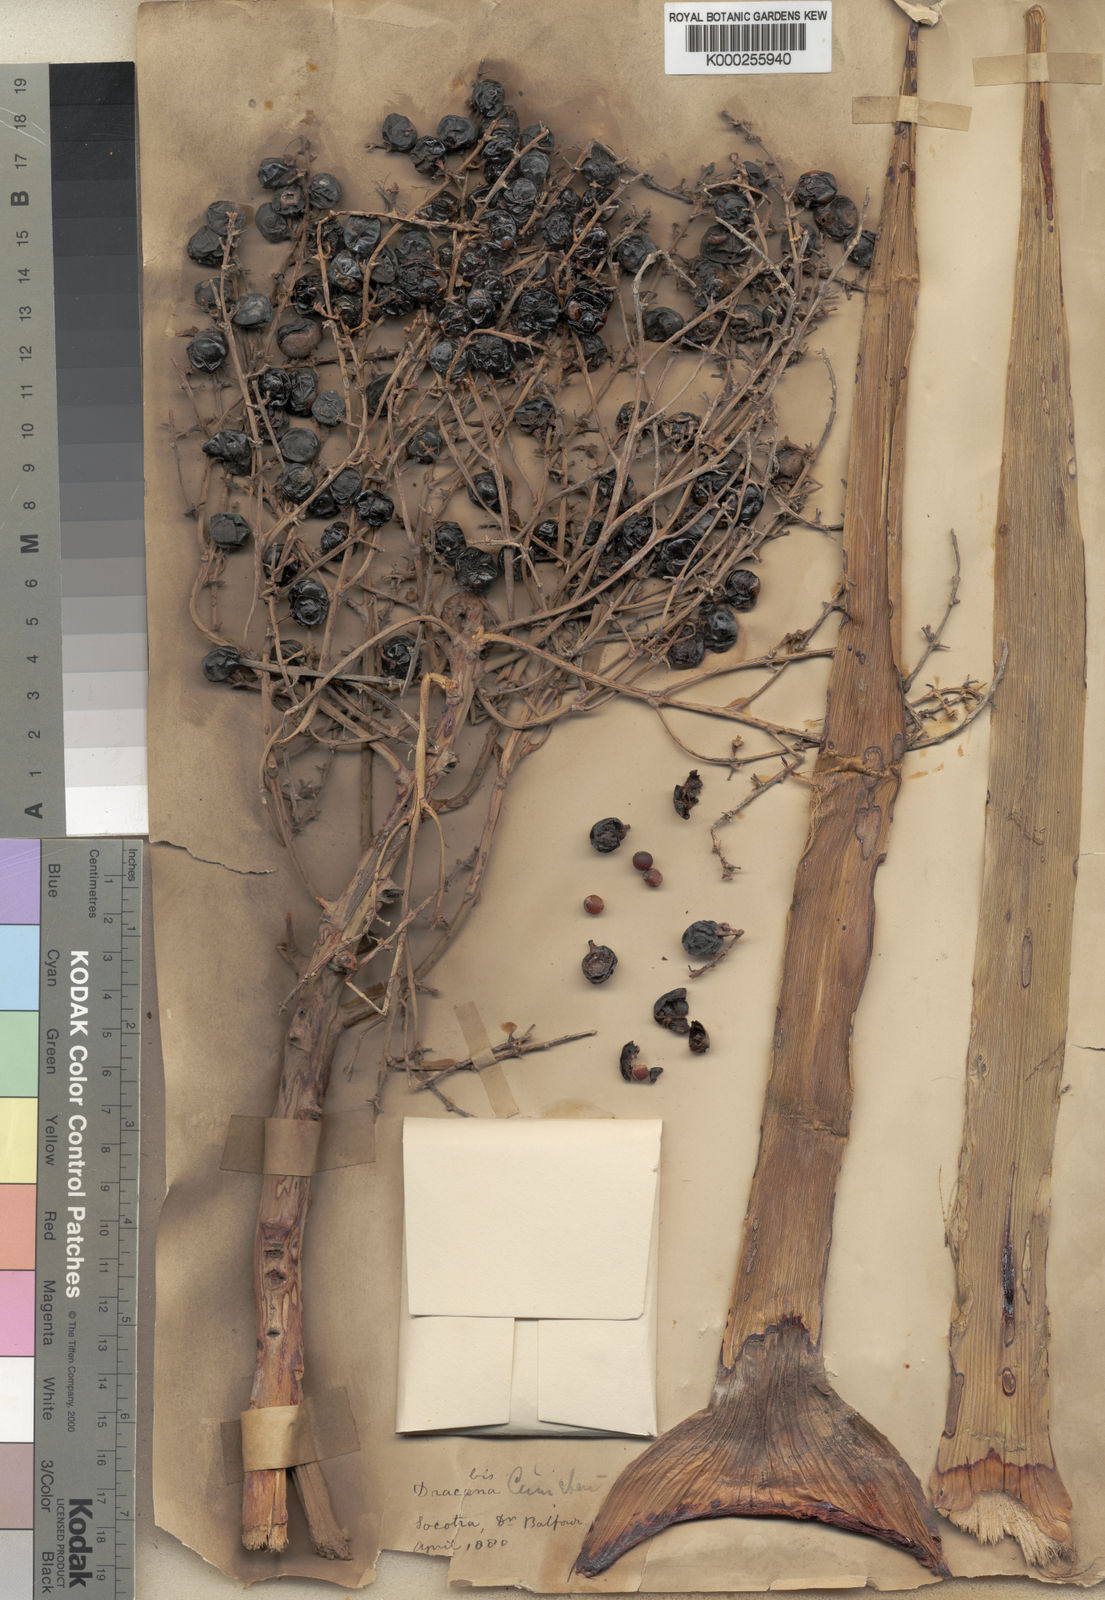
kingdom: Plantae
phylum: Tracheophyta
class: Liliopsida
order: Asparagales
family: Asparagaceae
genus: Dracaena
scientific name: Dracaena cinnabari
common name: Dragon's blood tree
